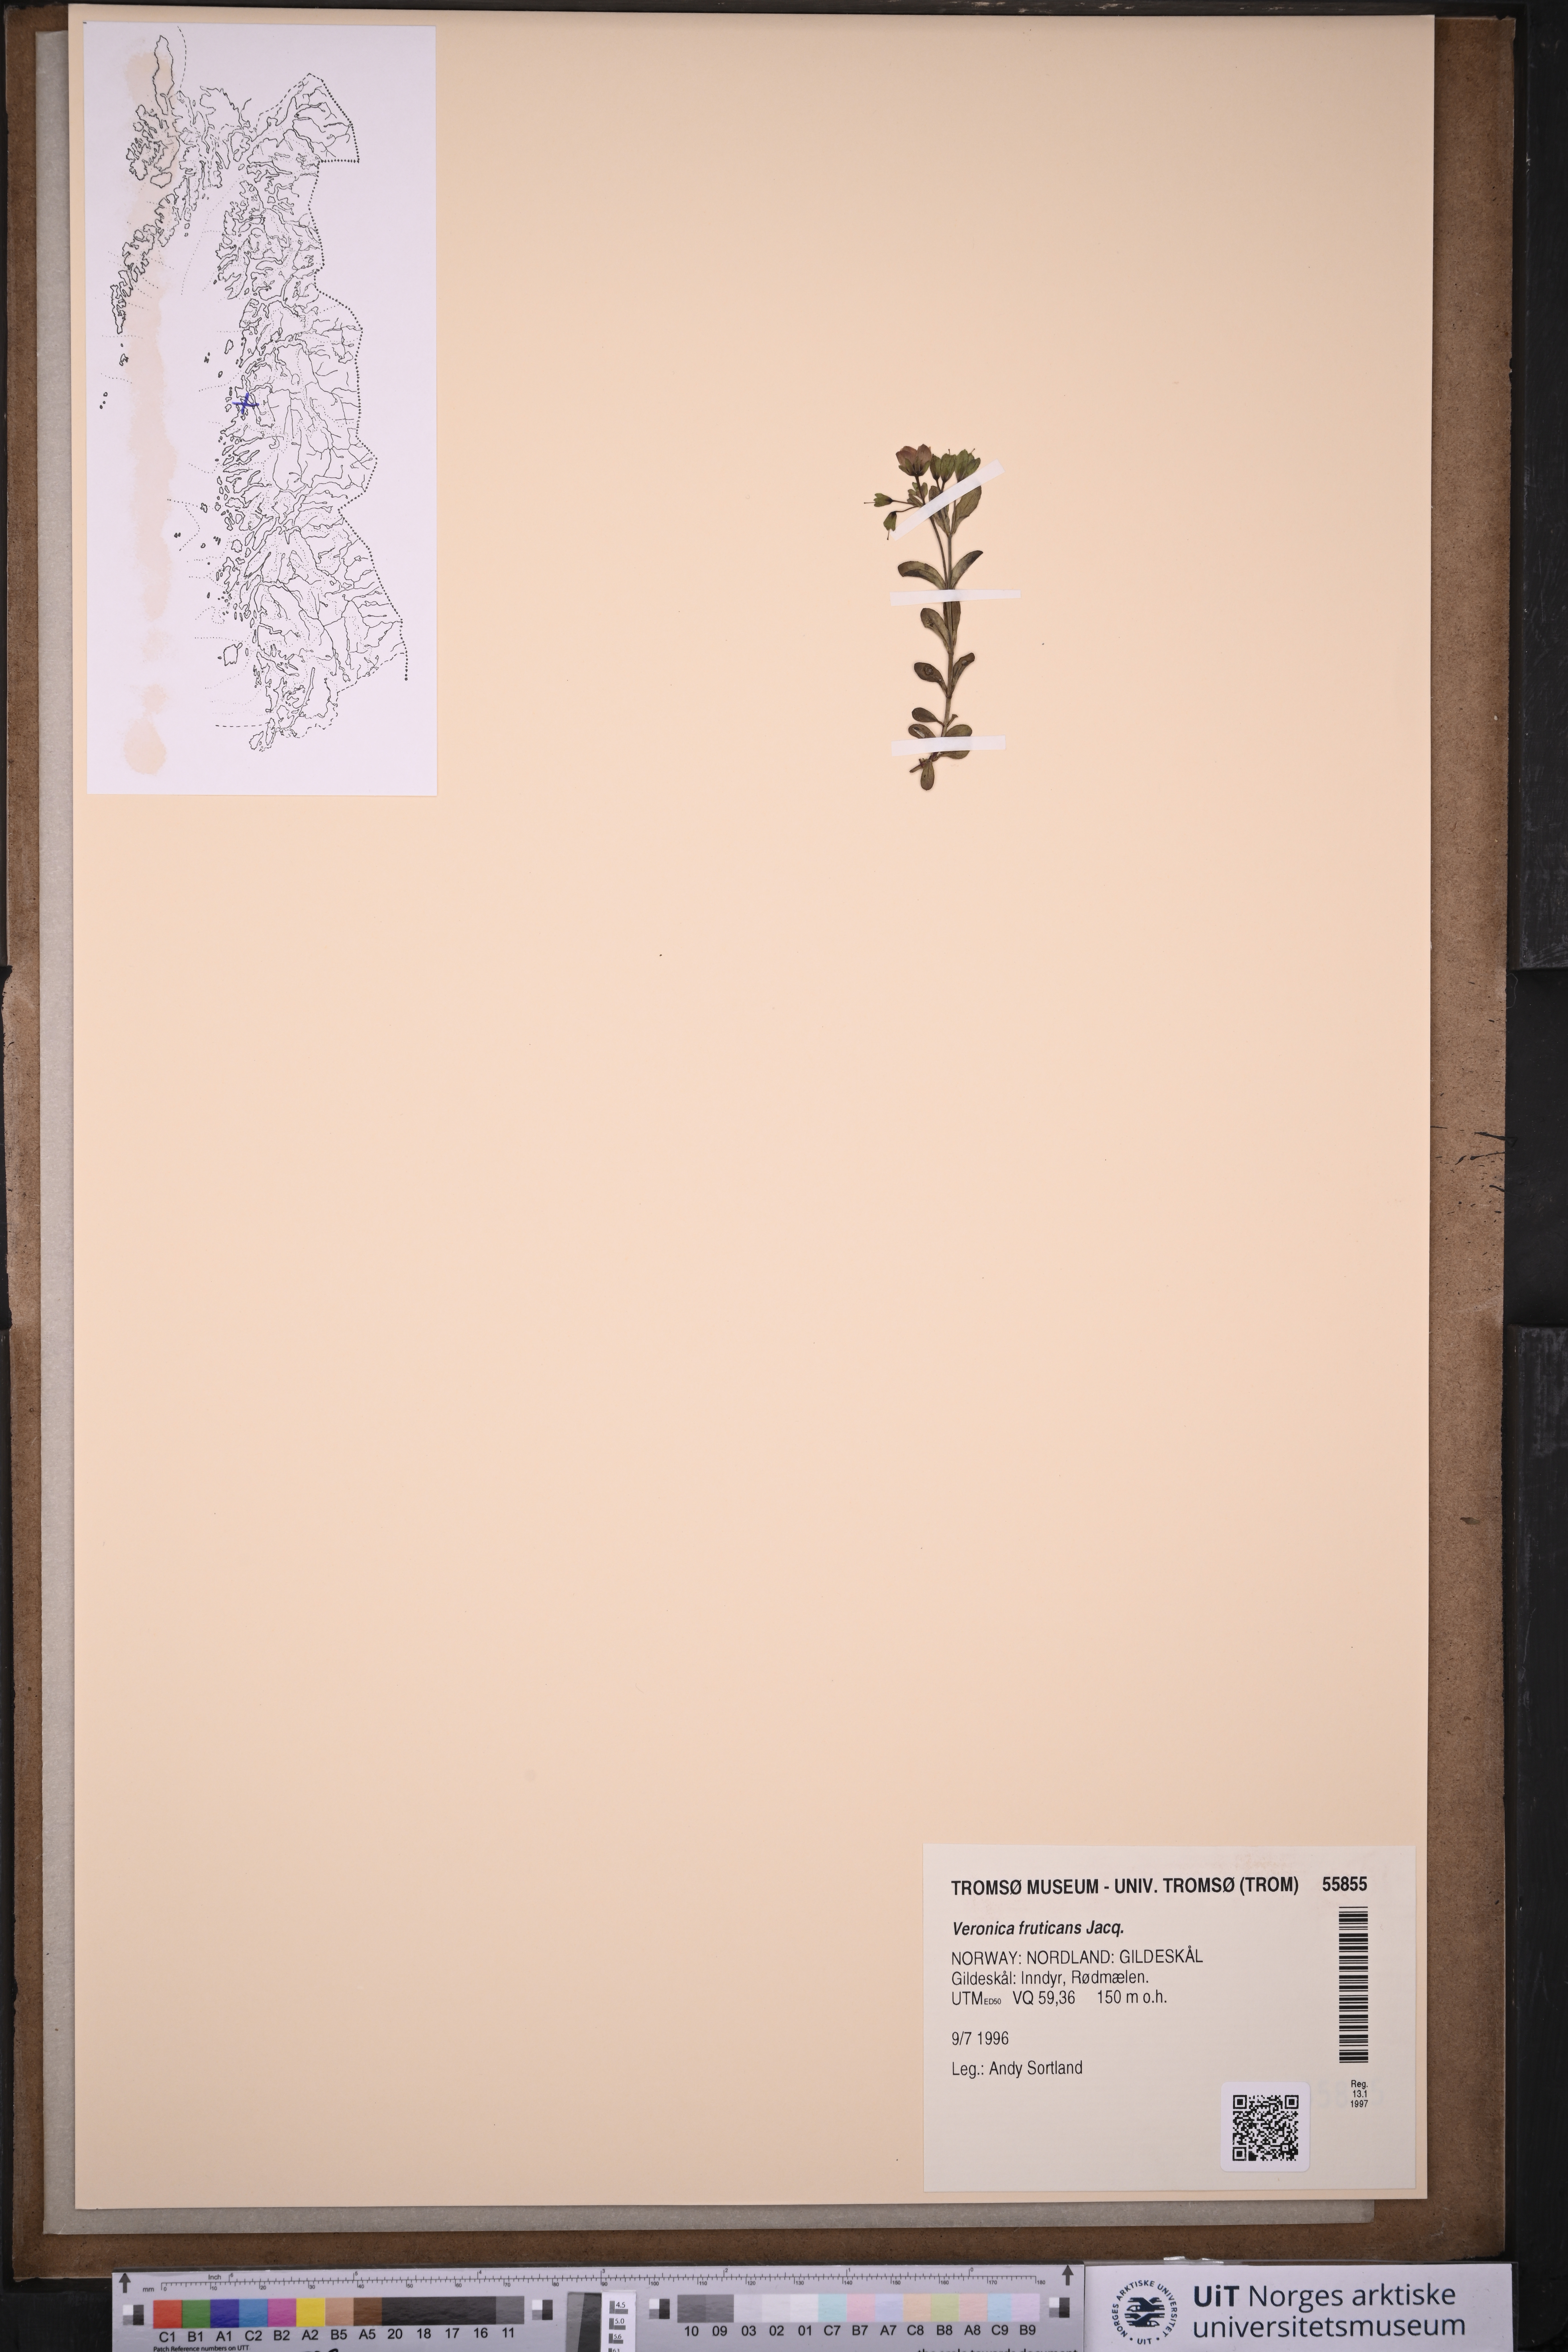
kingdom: Plantae
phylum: Tracheophyta
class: Magnoliopsida
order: Lamiales
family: Plantaginaceae
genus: Veronica
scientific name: Veronica fruticans
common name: Rock speedwell
